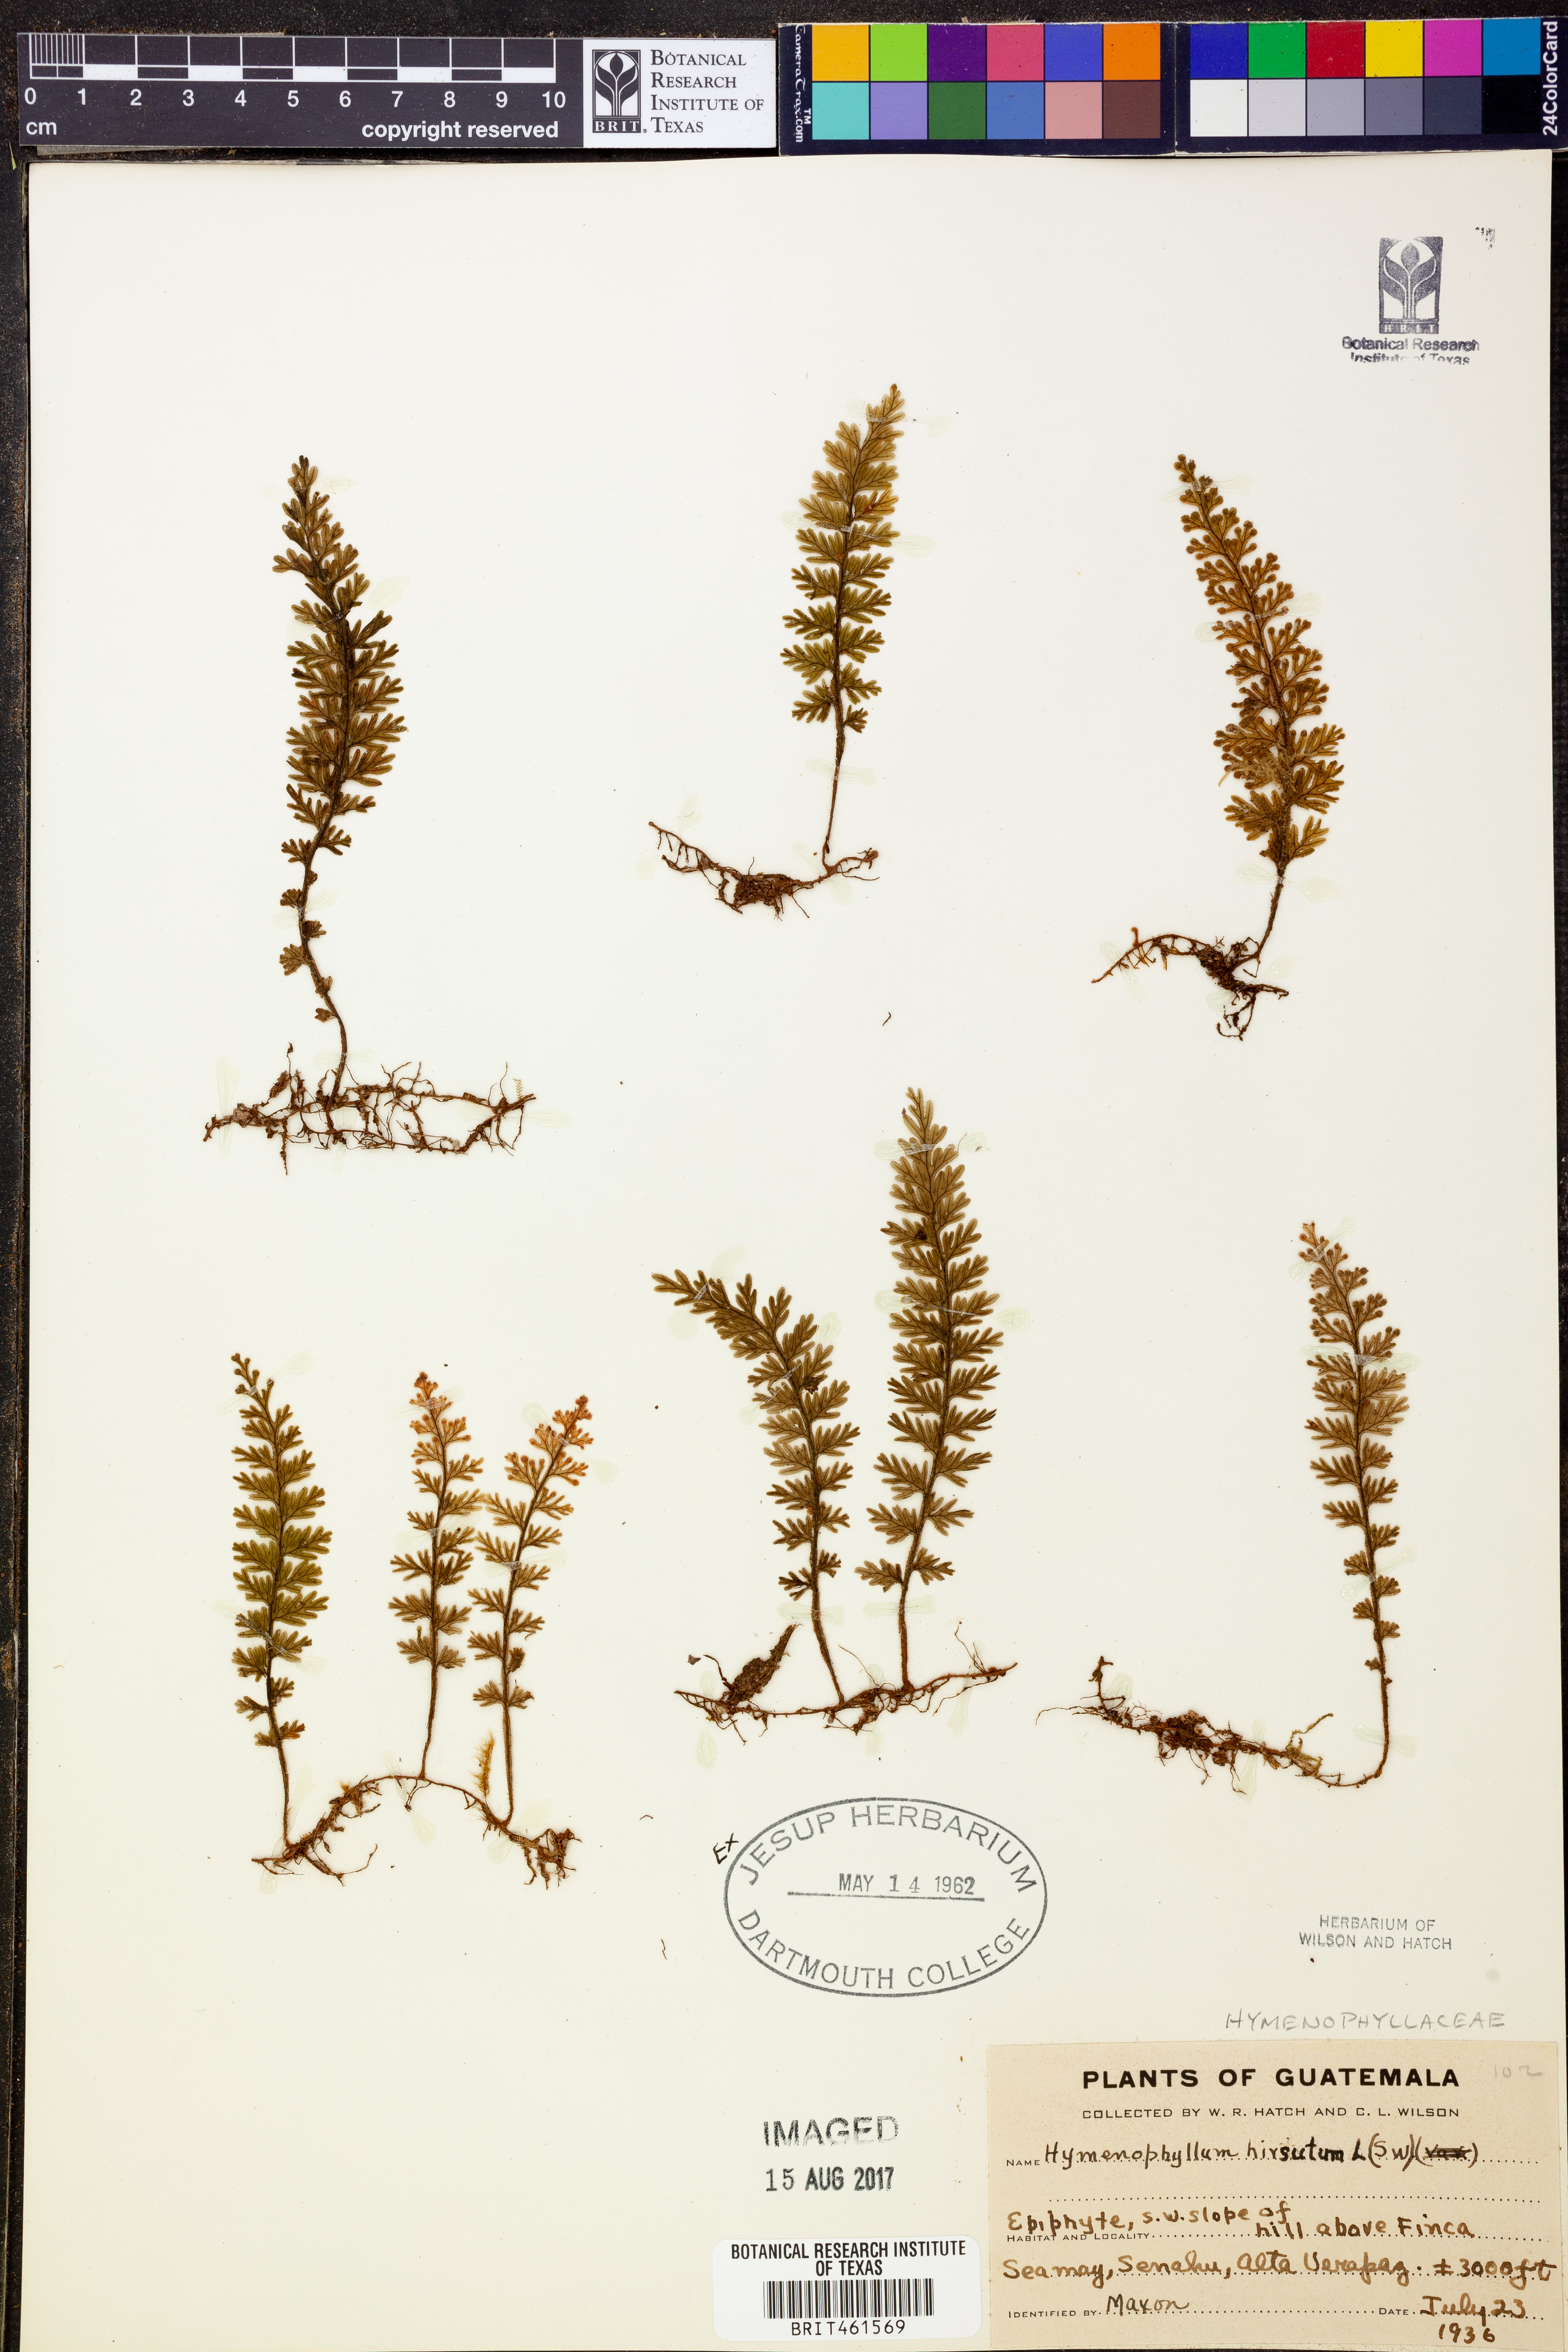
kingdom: Plantae
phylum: Tracheophyta
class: Polypodiopsida
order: Hymenophyllales
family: Hymenophyllaceae
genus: Hymenophyllum
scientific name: Hymenophyllum hirsutum
